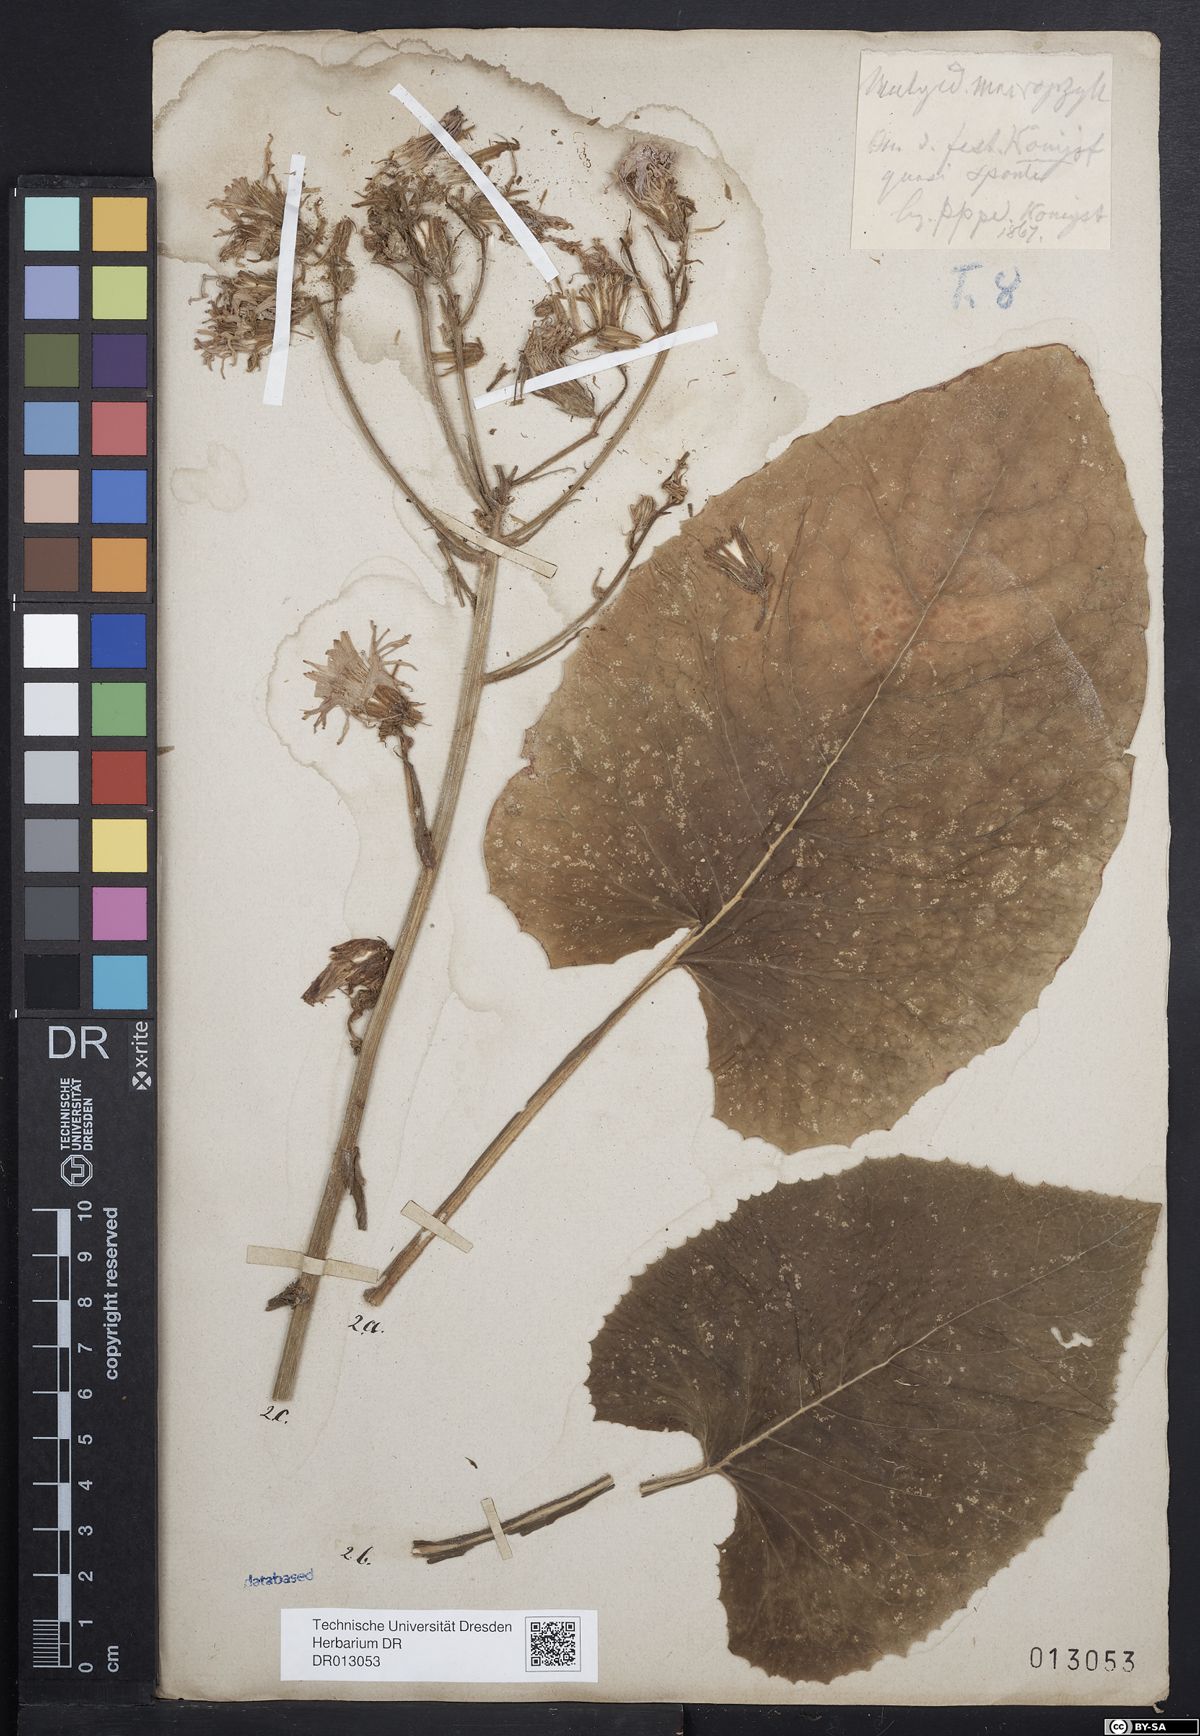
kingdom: Plantae
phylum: Tracheophyta
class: Magnoliopsida
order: Asterales
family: Asteraceae
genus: Lactuca
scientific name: Lactuca macrophylla
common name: Common blue-sow-thistle
